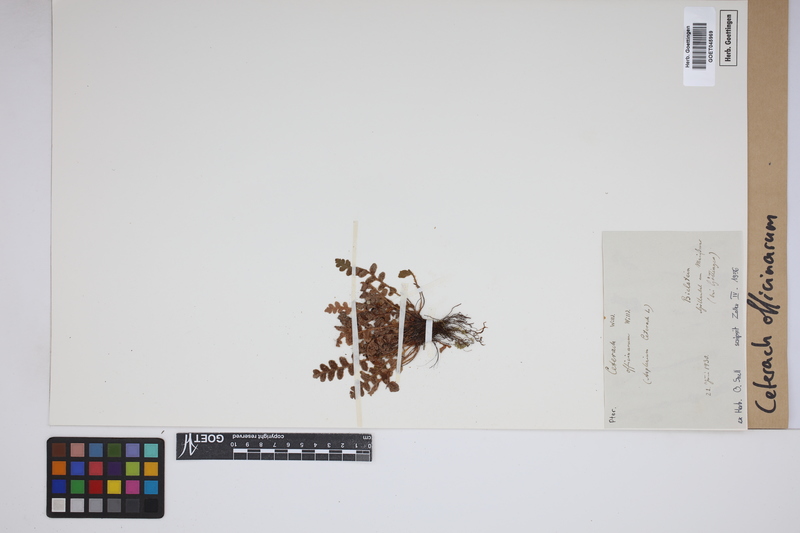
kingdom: Plantae
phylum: Tracheophyta
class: Polypodiopsida
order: Polypodiales
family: Aspleniaceae
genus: Asplenium
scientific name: Asplenium ceterach
